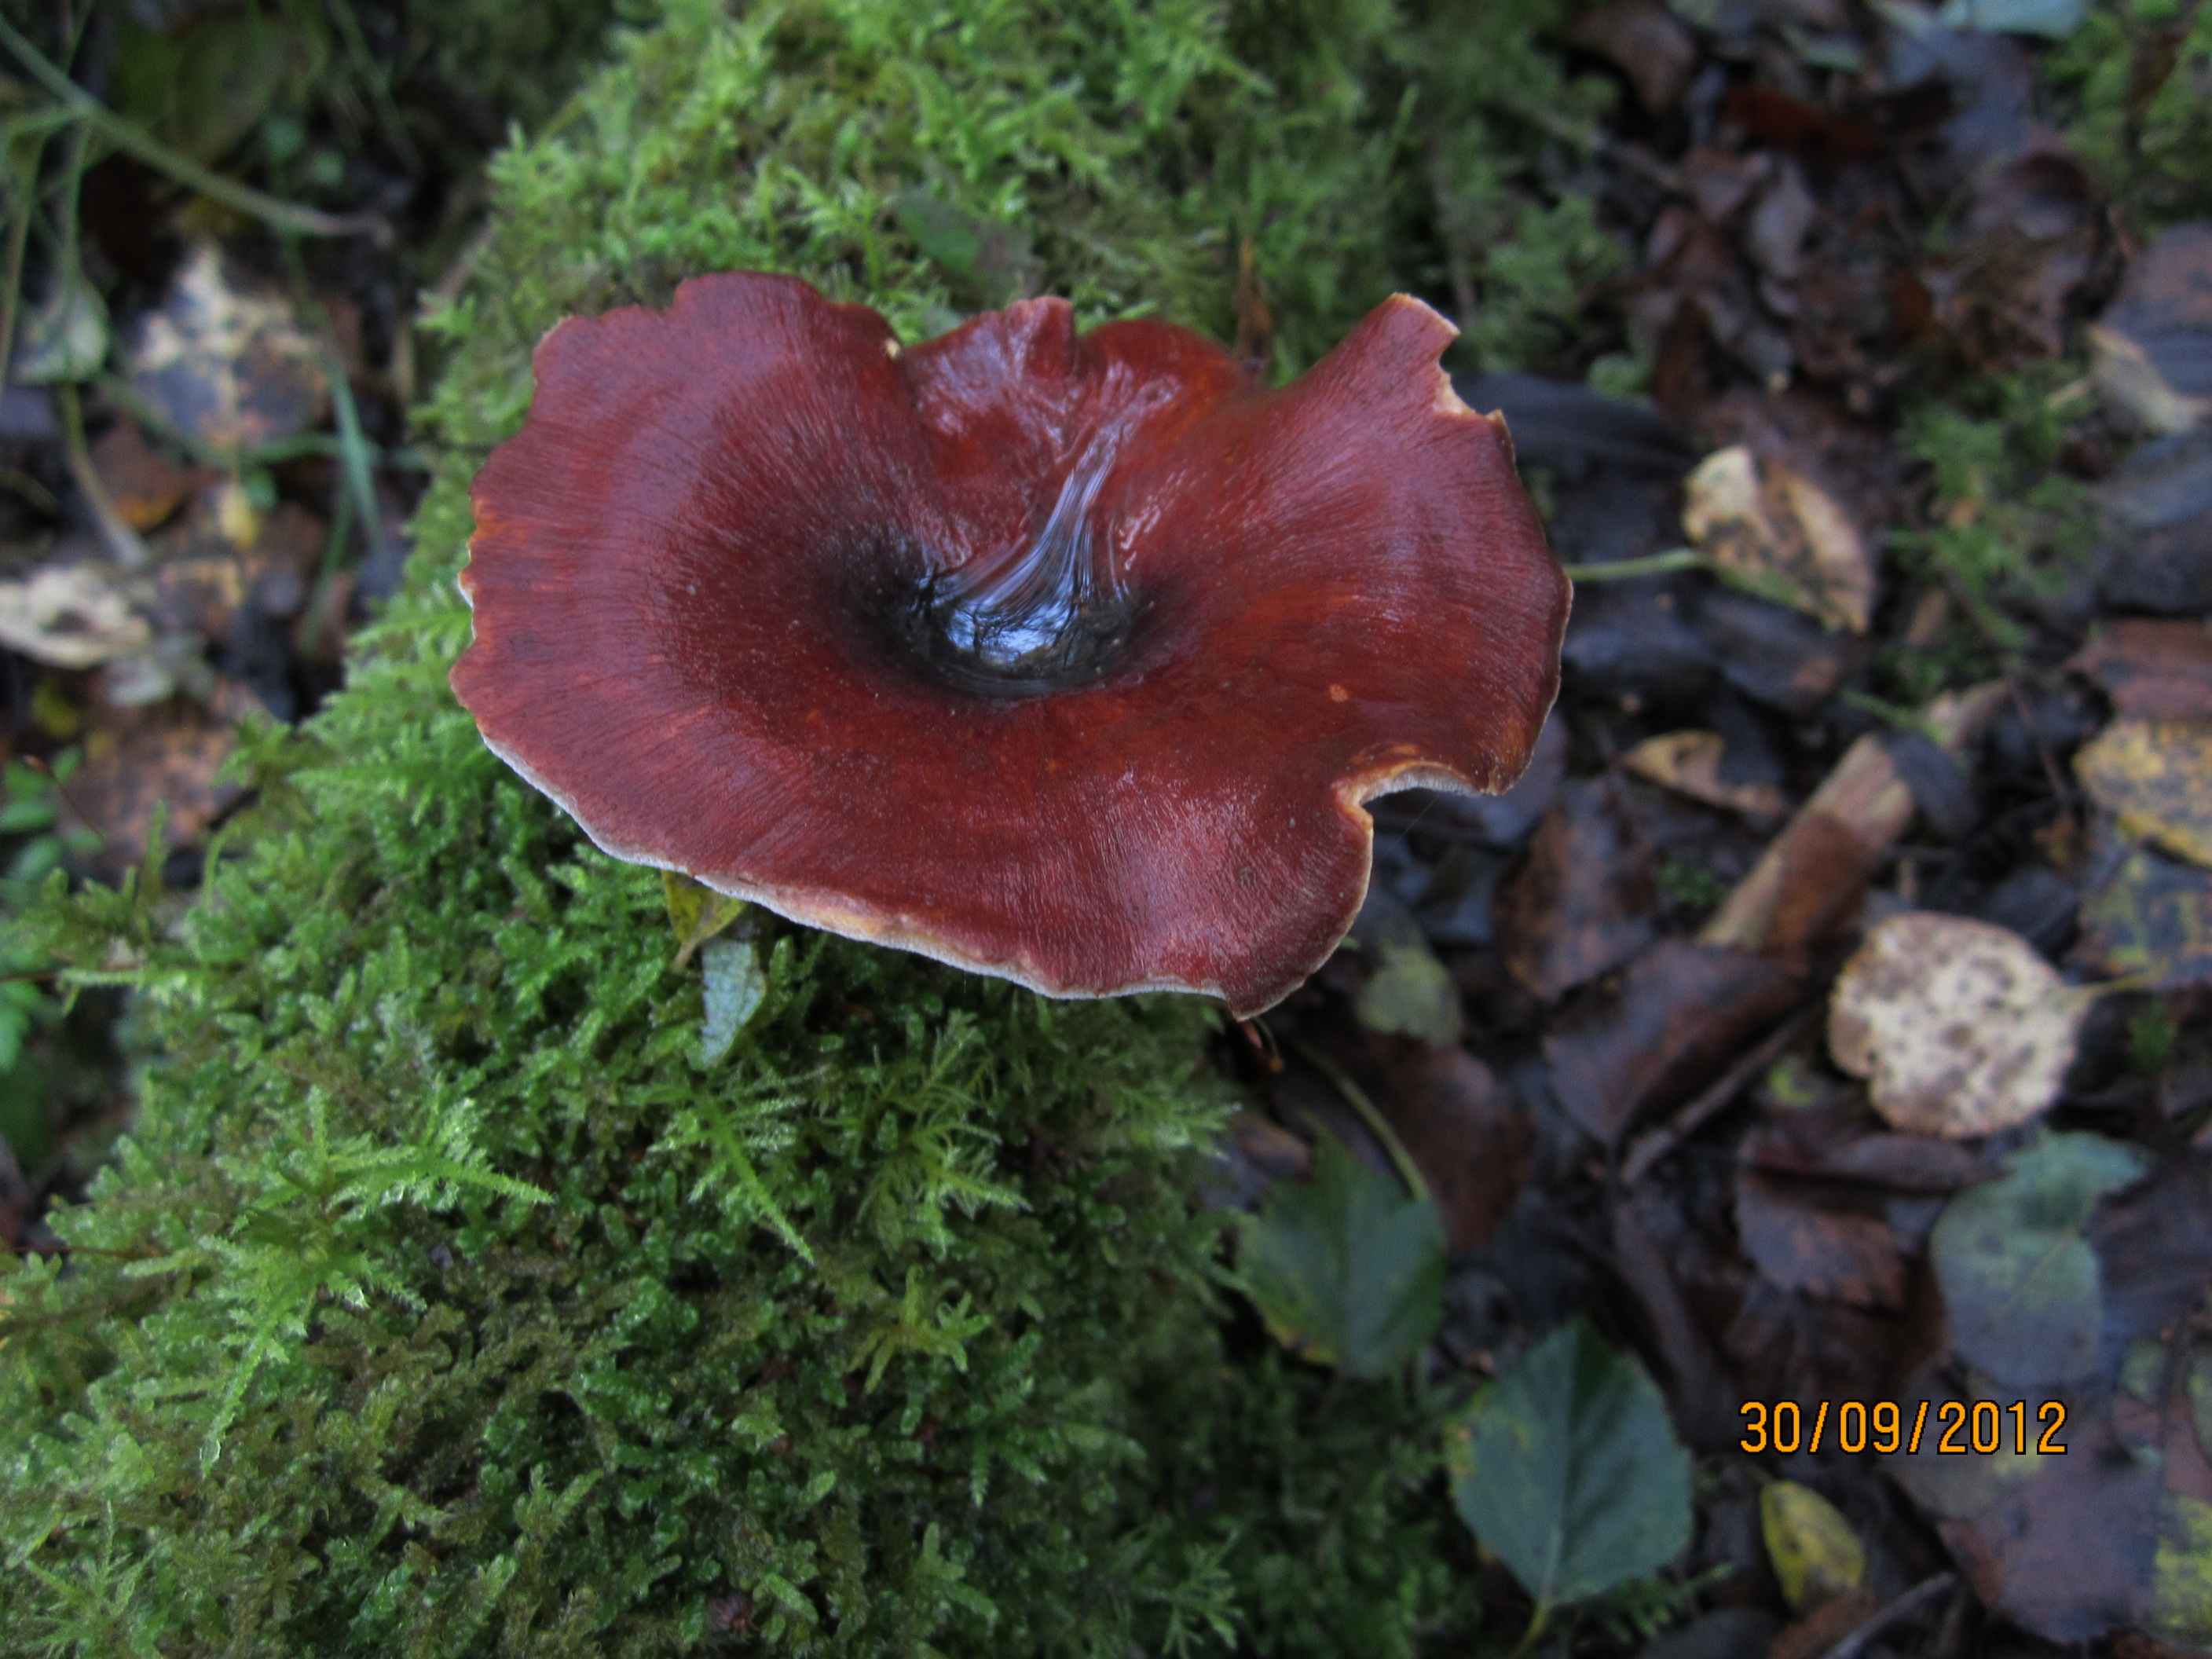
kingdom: Fungi
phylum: Basidiomycota
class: Agaricomycetes
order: Polyporales
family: Polyporaceae
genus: Picipes
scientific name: Picipes tubaeformis
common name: trompet-stilkporesvamp
